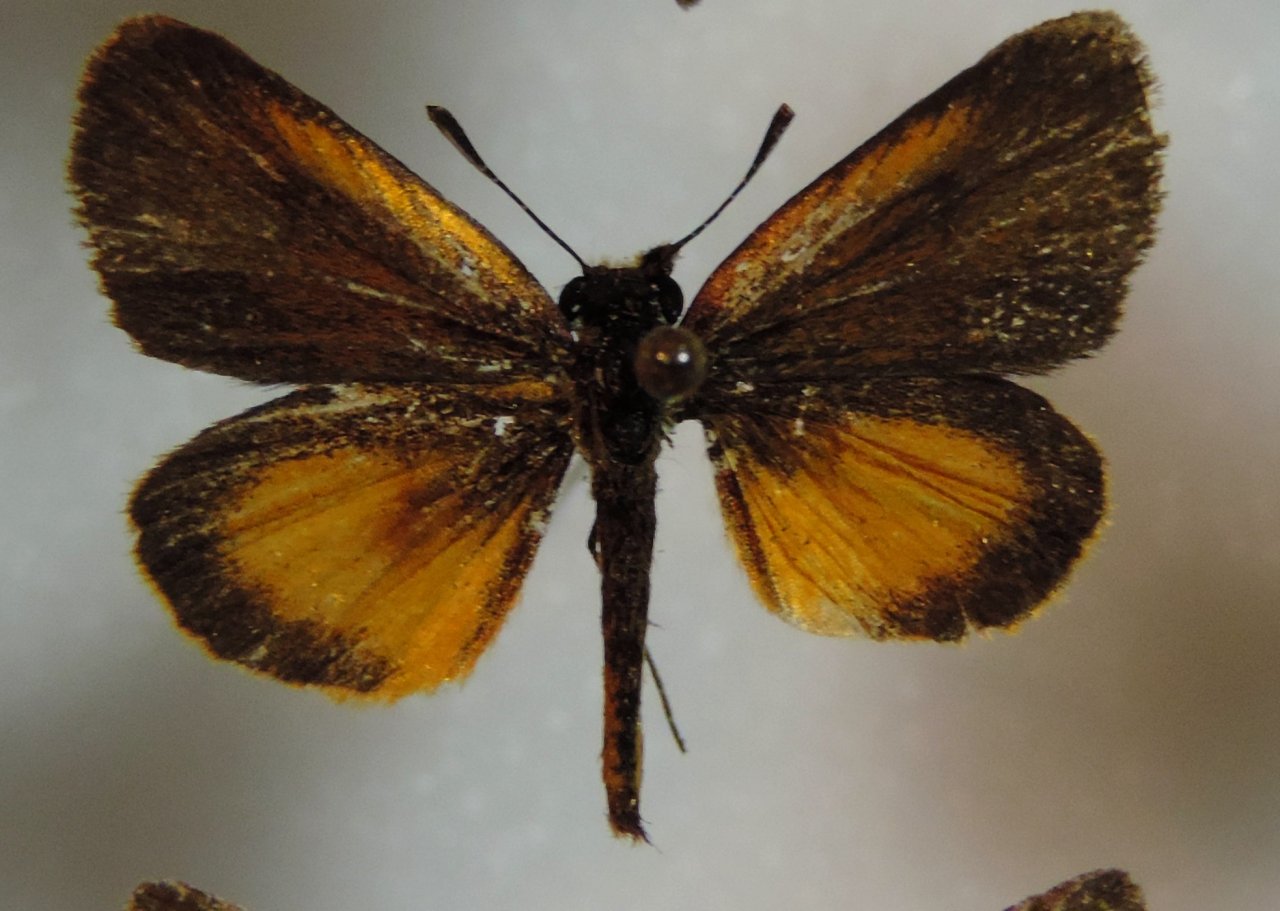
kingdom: Animalia
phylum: Arthropoda
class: Insecta
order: Lepidoptera
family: Hesperiidae
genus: Ancyloxypha
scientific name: Ancyloxypha numitor
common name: Least Skipper
